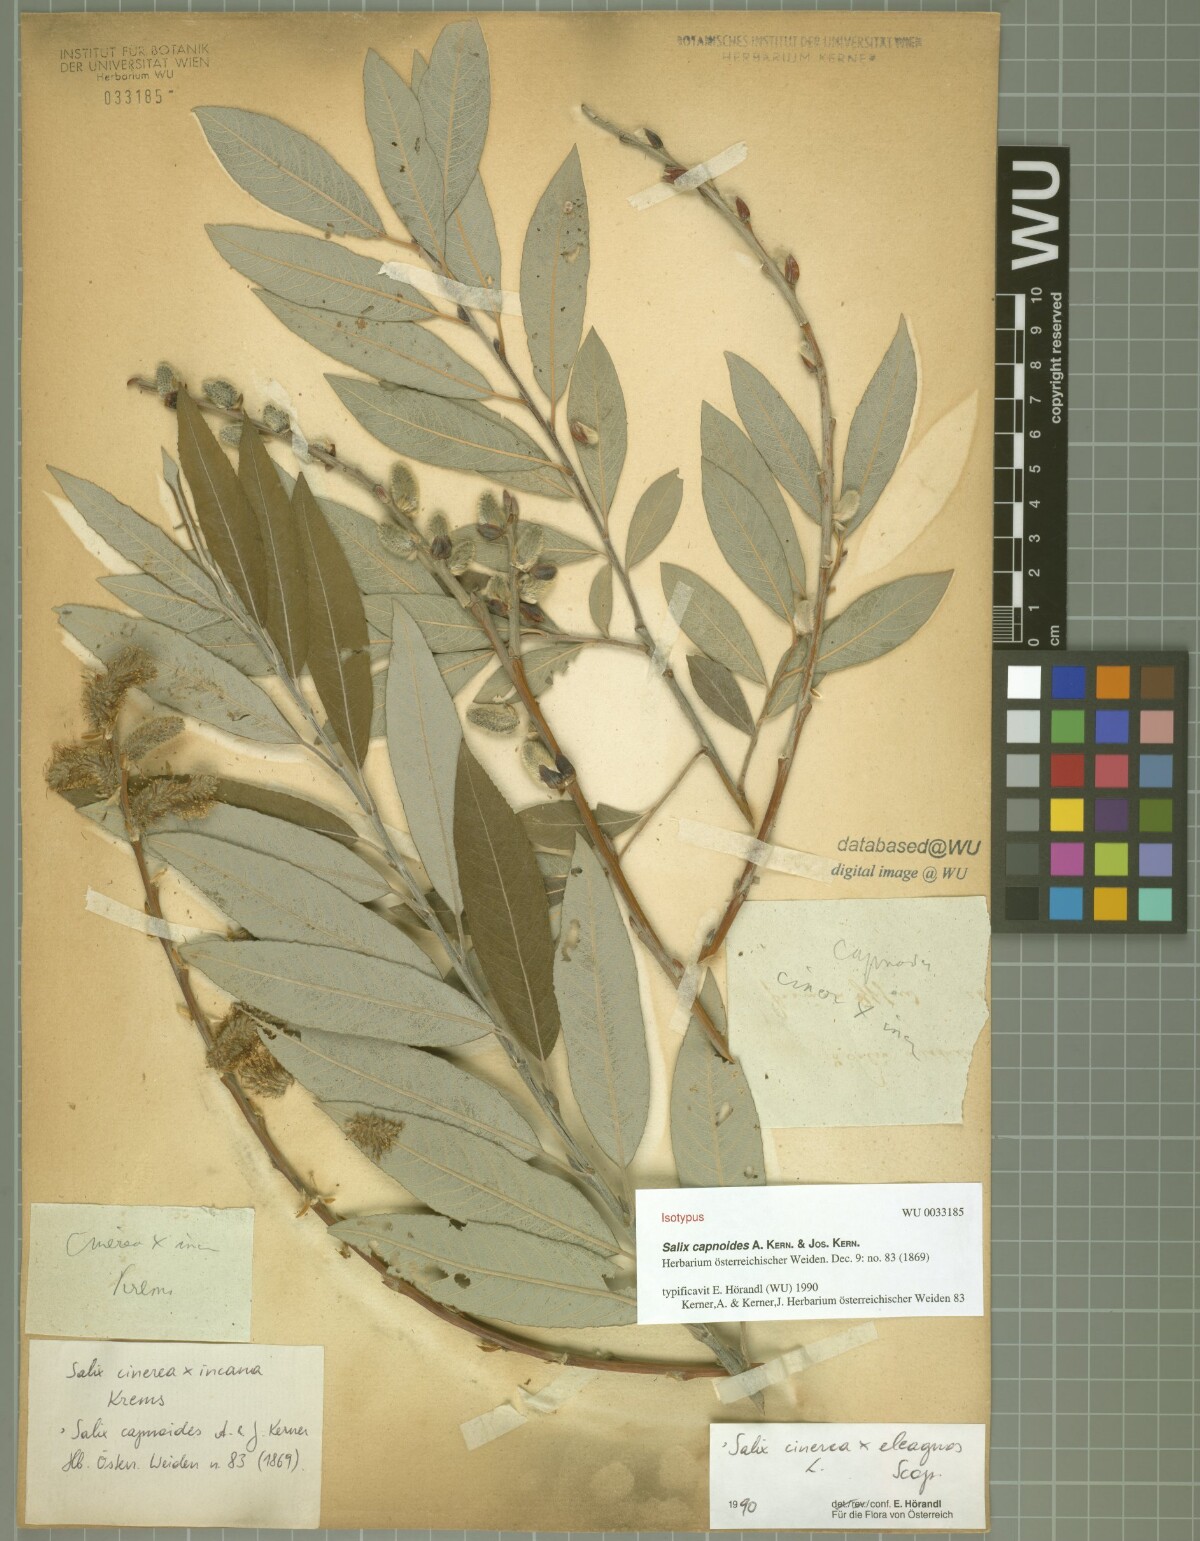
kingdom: Plantae
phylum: Tracheophyta
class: Magnoliopsida
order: Malpighiales
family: Salicaceae
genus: Salix
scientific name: Salix eleagnos
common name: Elaeagnus willow
